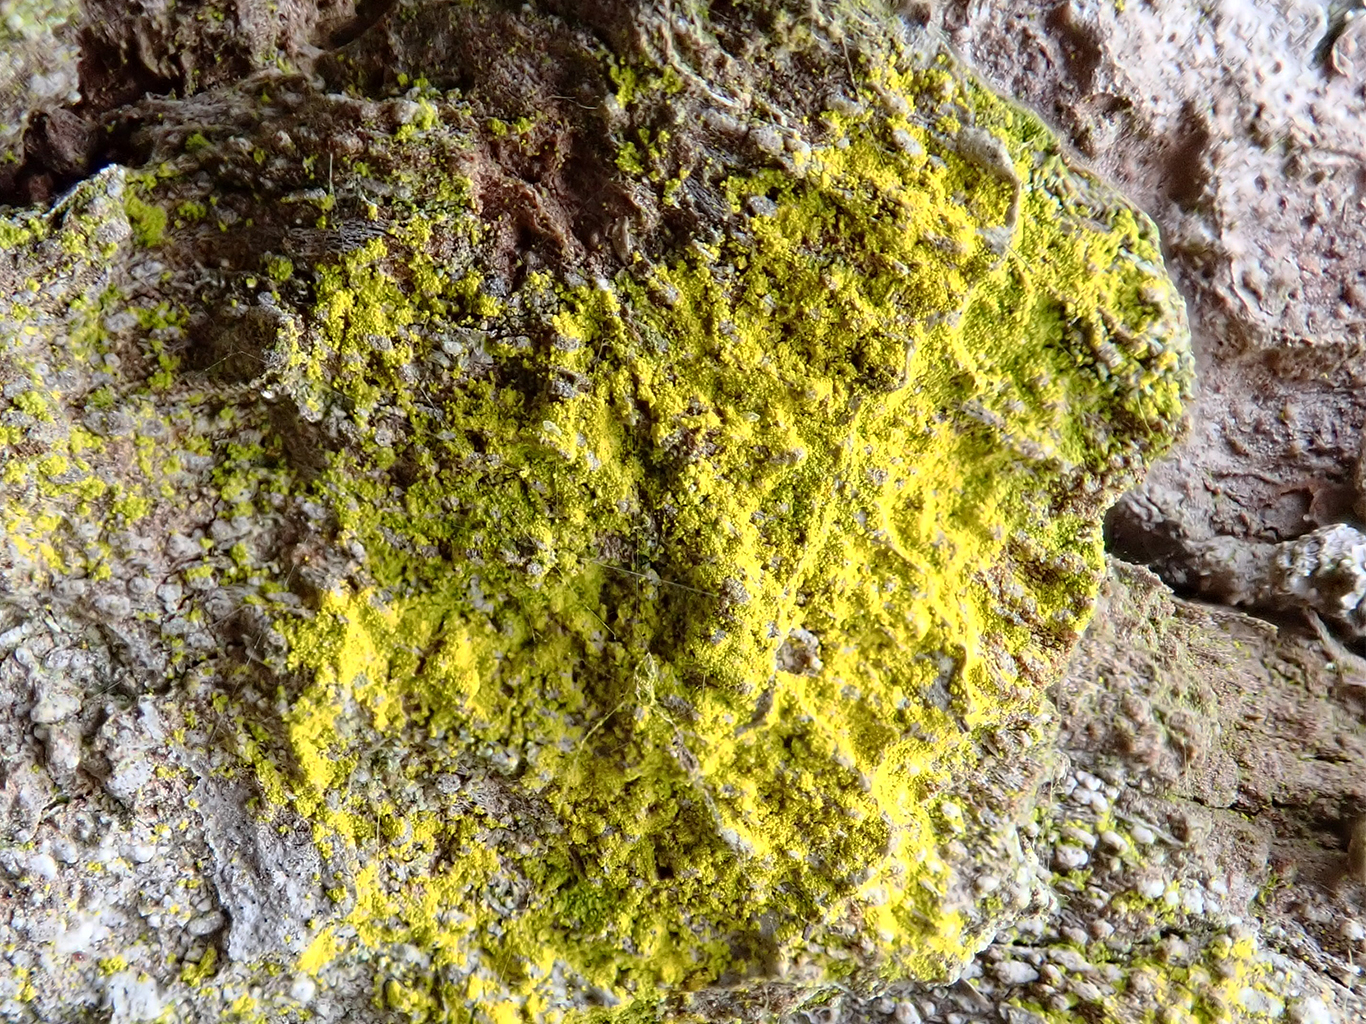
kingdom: Fungi
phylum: Ascomycota
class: Arthoniomycetes
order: Arthoniales
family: Chrysotrichaceae
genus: Chrysothrix
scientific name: Chrysothrix candelaris
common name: gul støvlav
